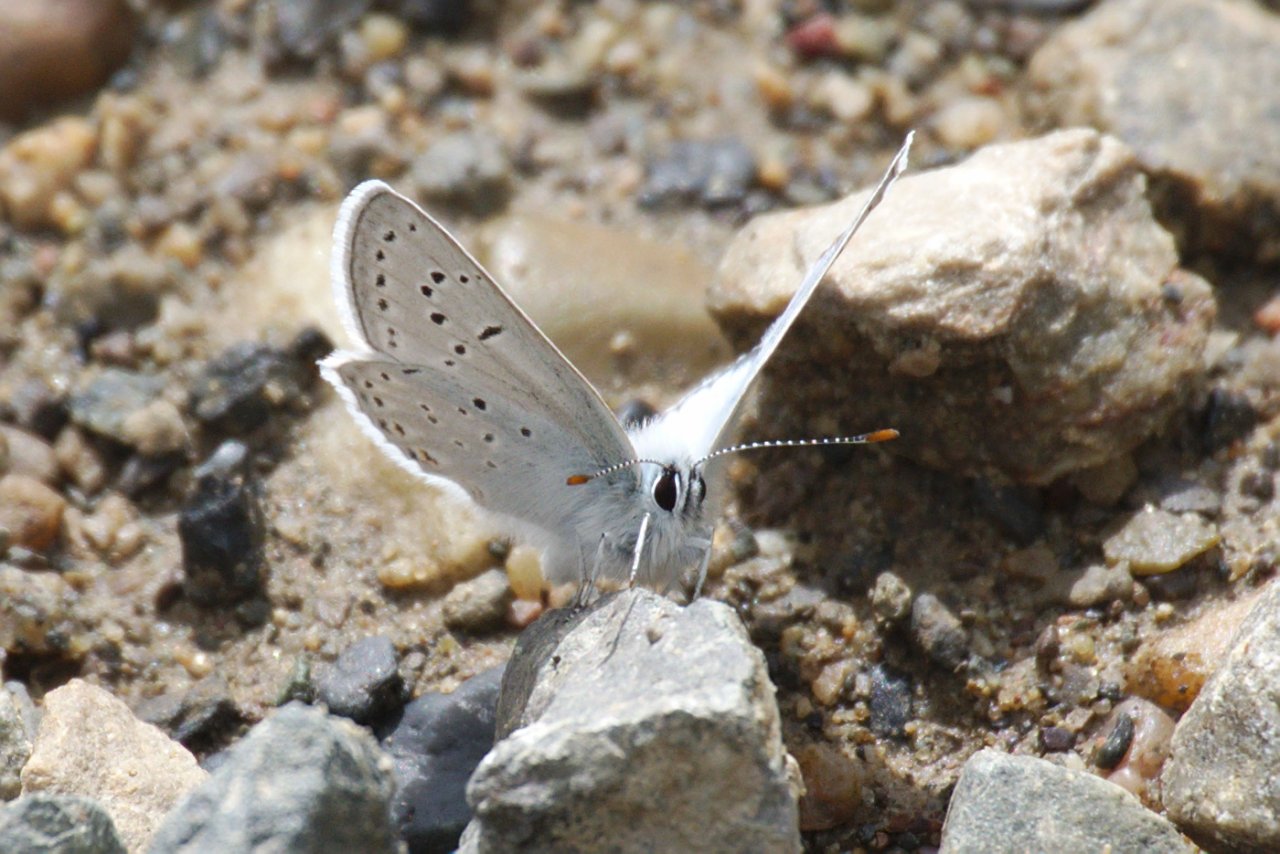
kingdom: Animalia
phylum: Arthropoda
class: Insecta
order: Lepidoptera
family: Lycaenidae
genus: Plebejus
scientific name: Plebejus saepiolus
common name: Greenish Blue
